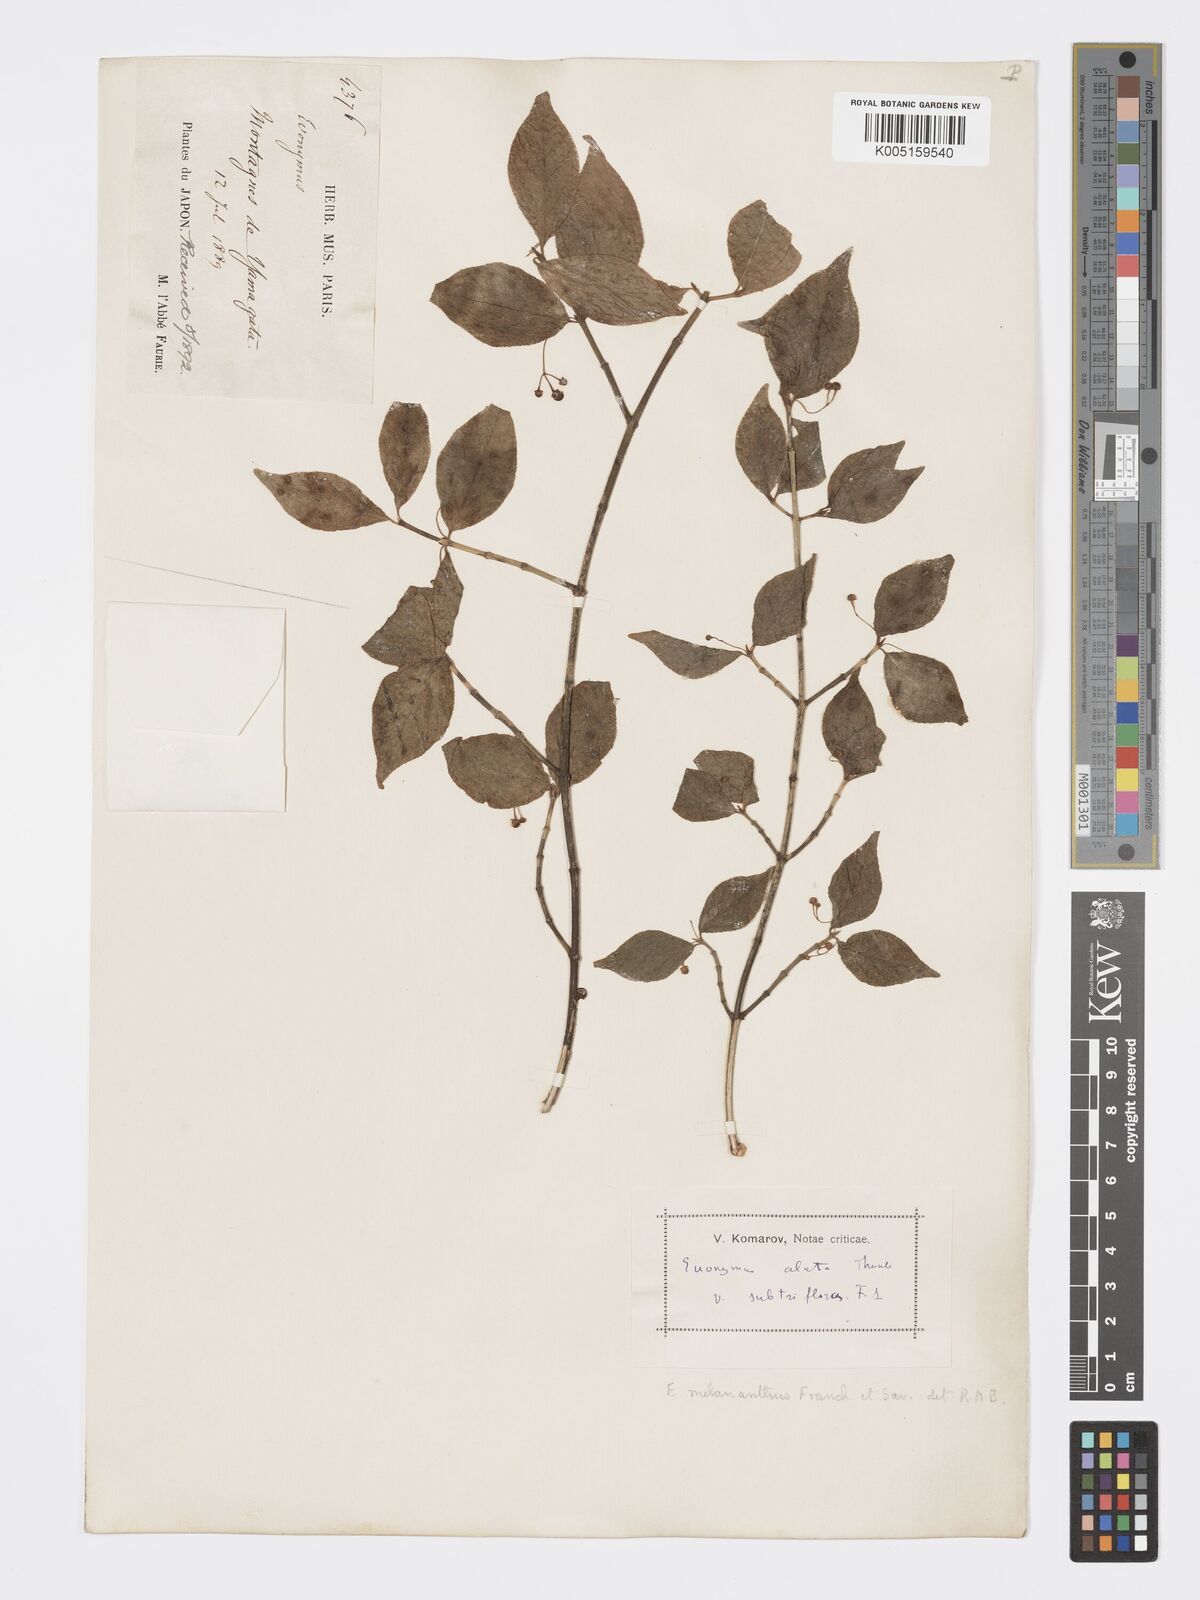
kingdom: Plantae
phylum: Tracheophyta
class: Magnoliopsida
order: Celastrales
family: Celastraceae
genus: Euonymus
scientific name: Euonymus melananthus
